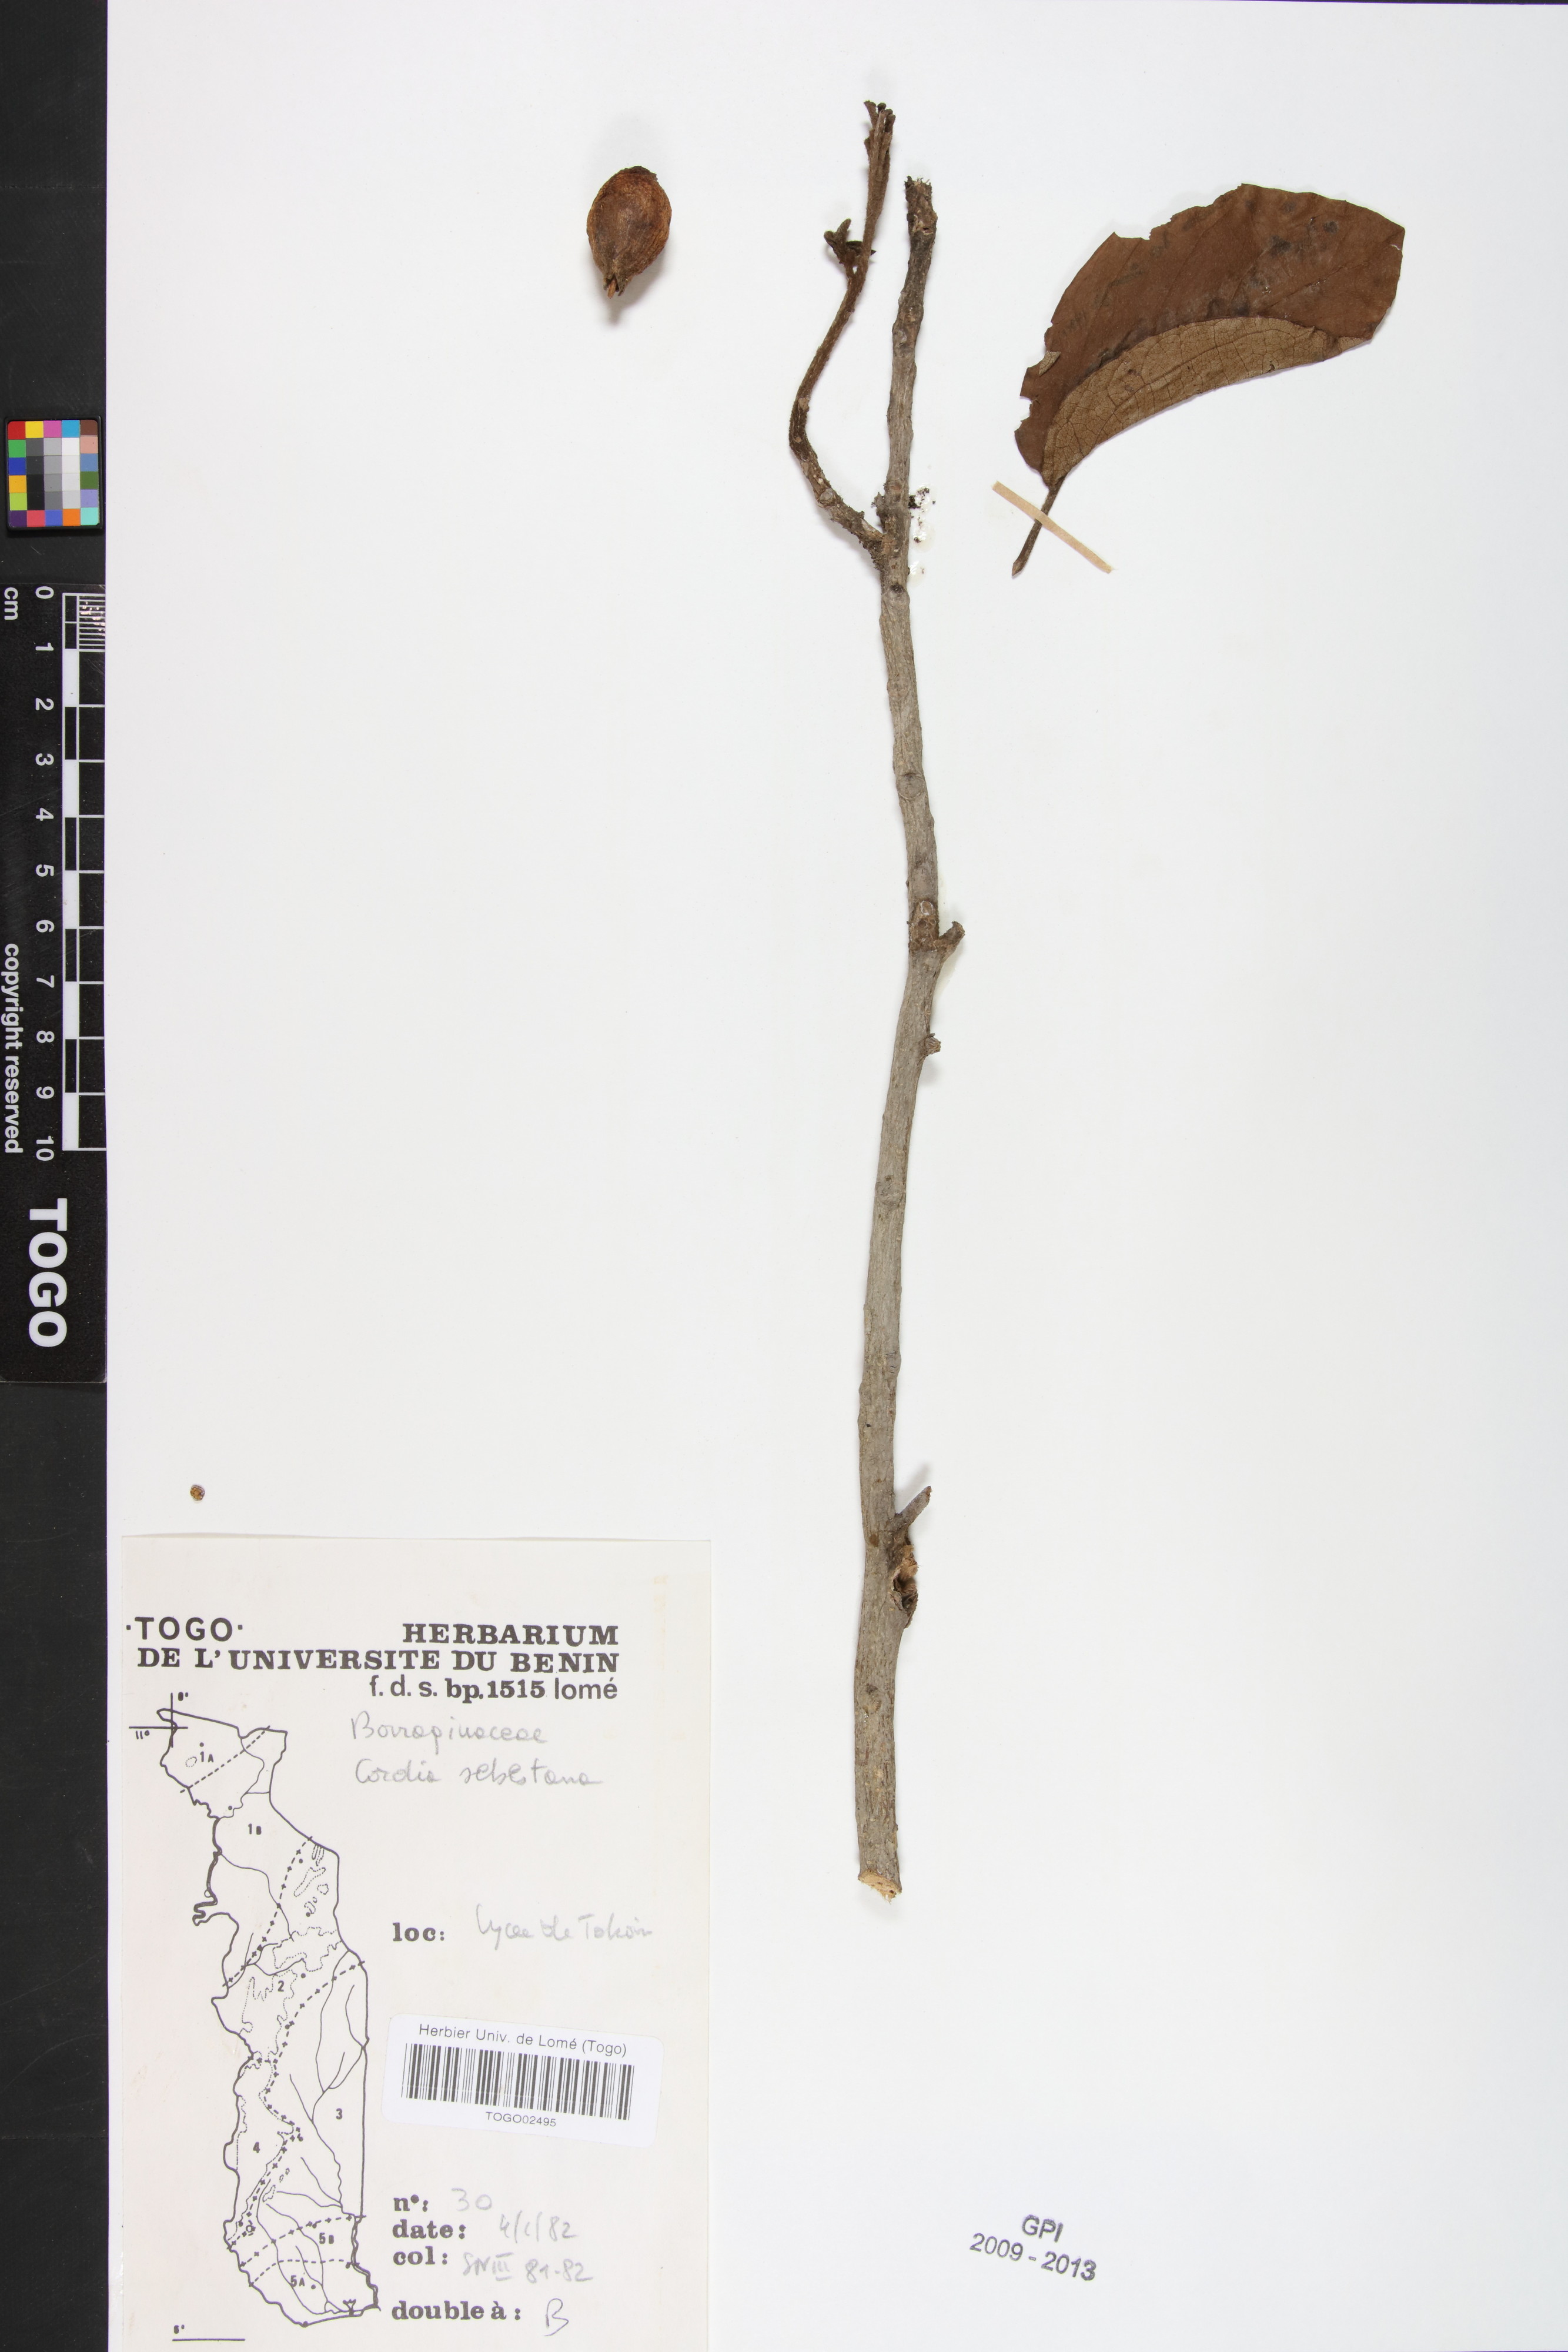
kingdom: Plantae
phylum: Tracheophyta
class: Magnoliopsida
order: Boraginales
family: Cordiaceae
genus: Cordia
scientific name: Cordia sebestena
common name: Largeleaf geigertree
